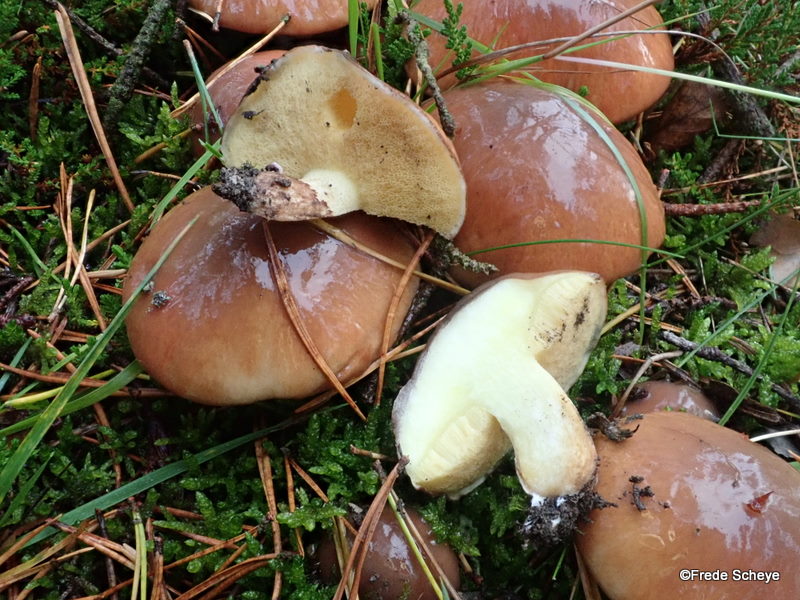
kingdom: Fungi
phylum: Basidiomycota
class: Agaricomycetes
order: Boletales
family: Suillaceae
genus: Suillus
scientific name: Suillus luteus
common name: brungul slimrørhat
